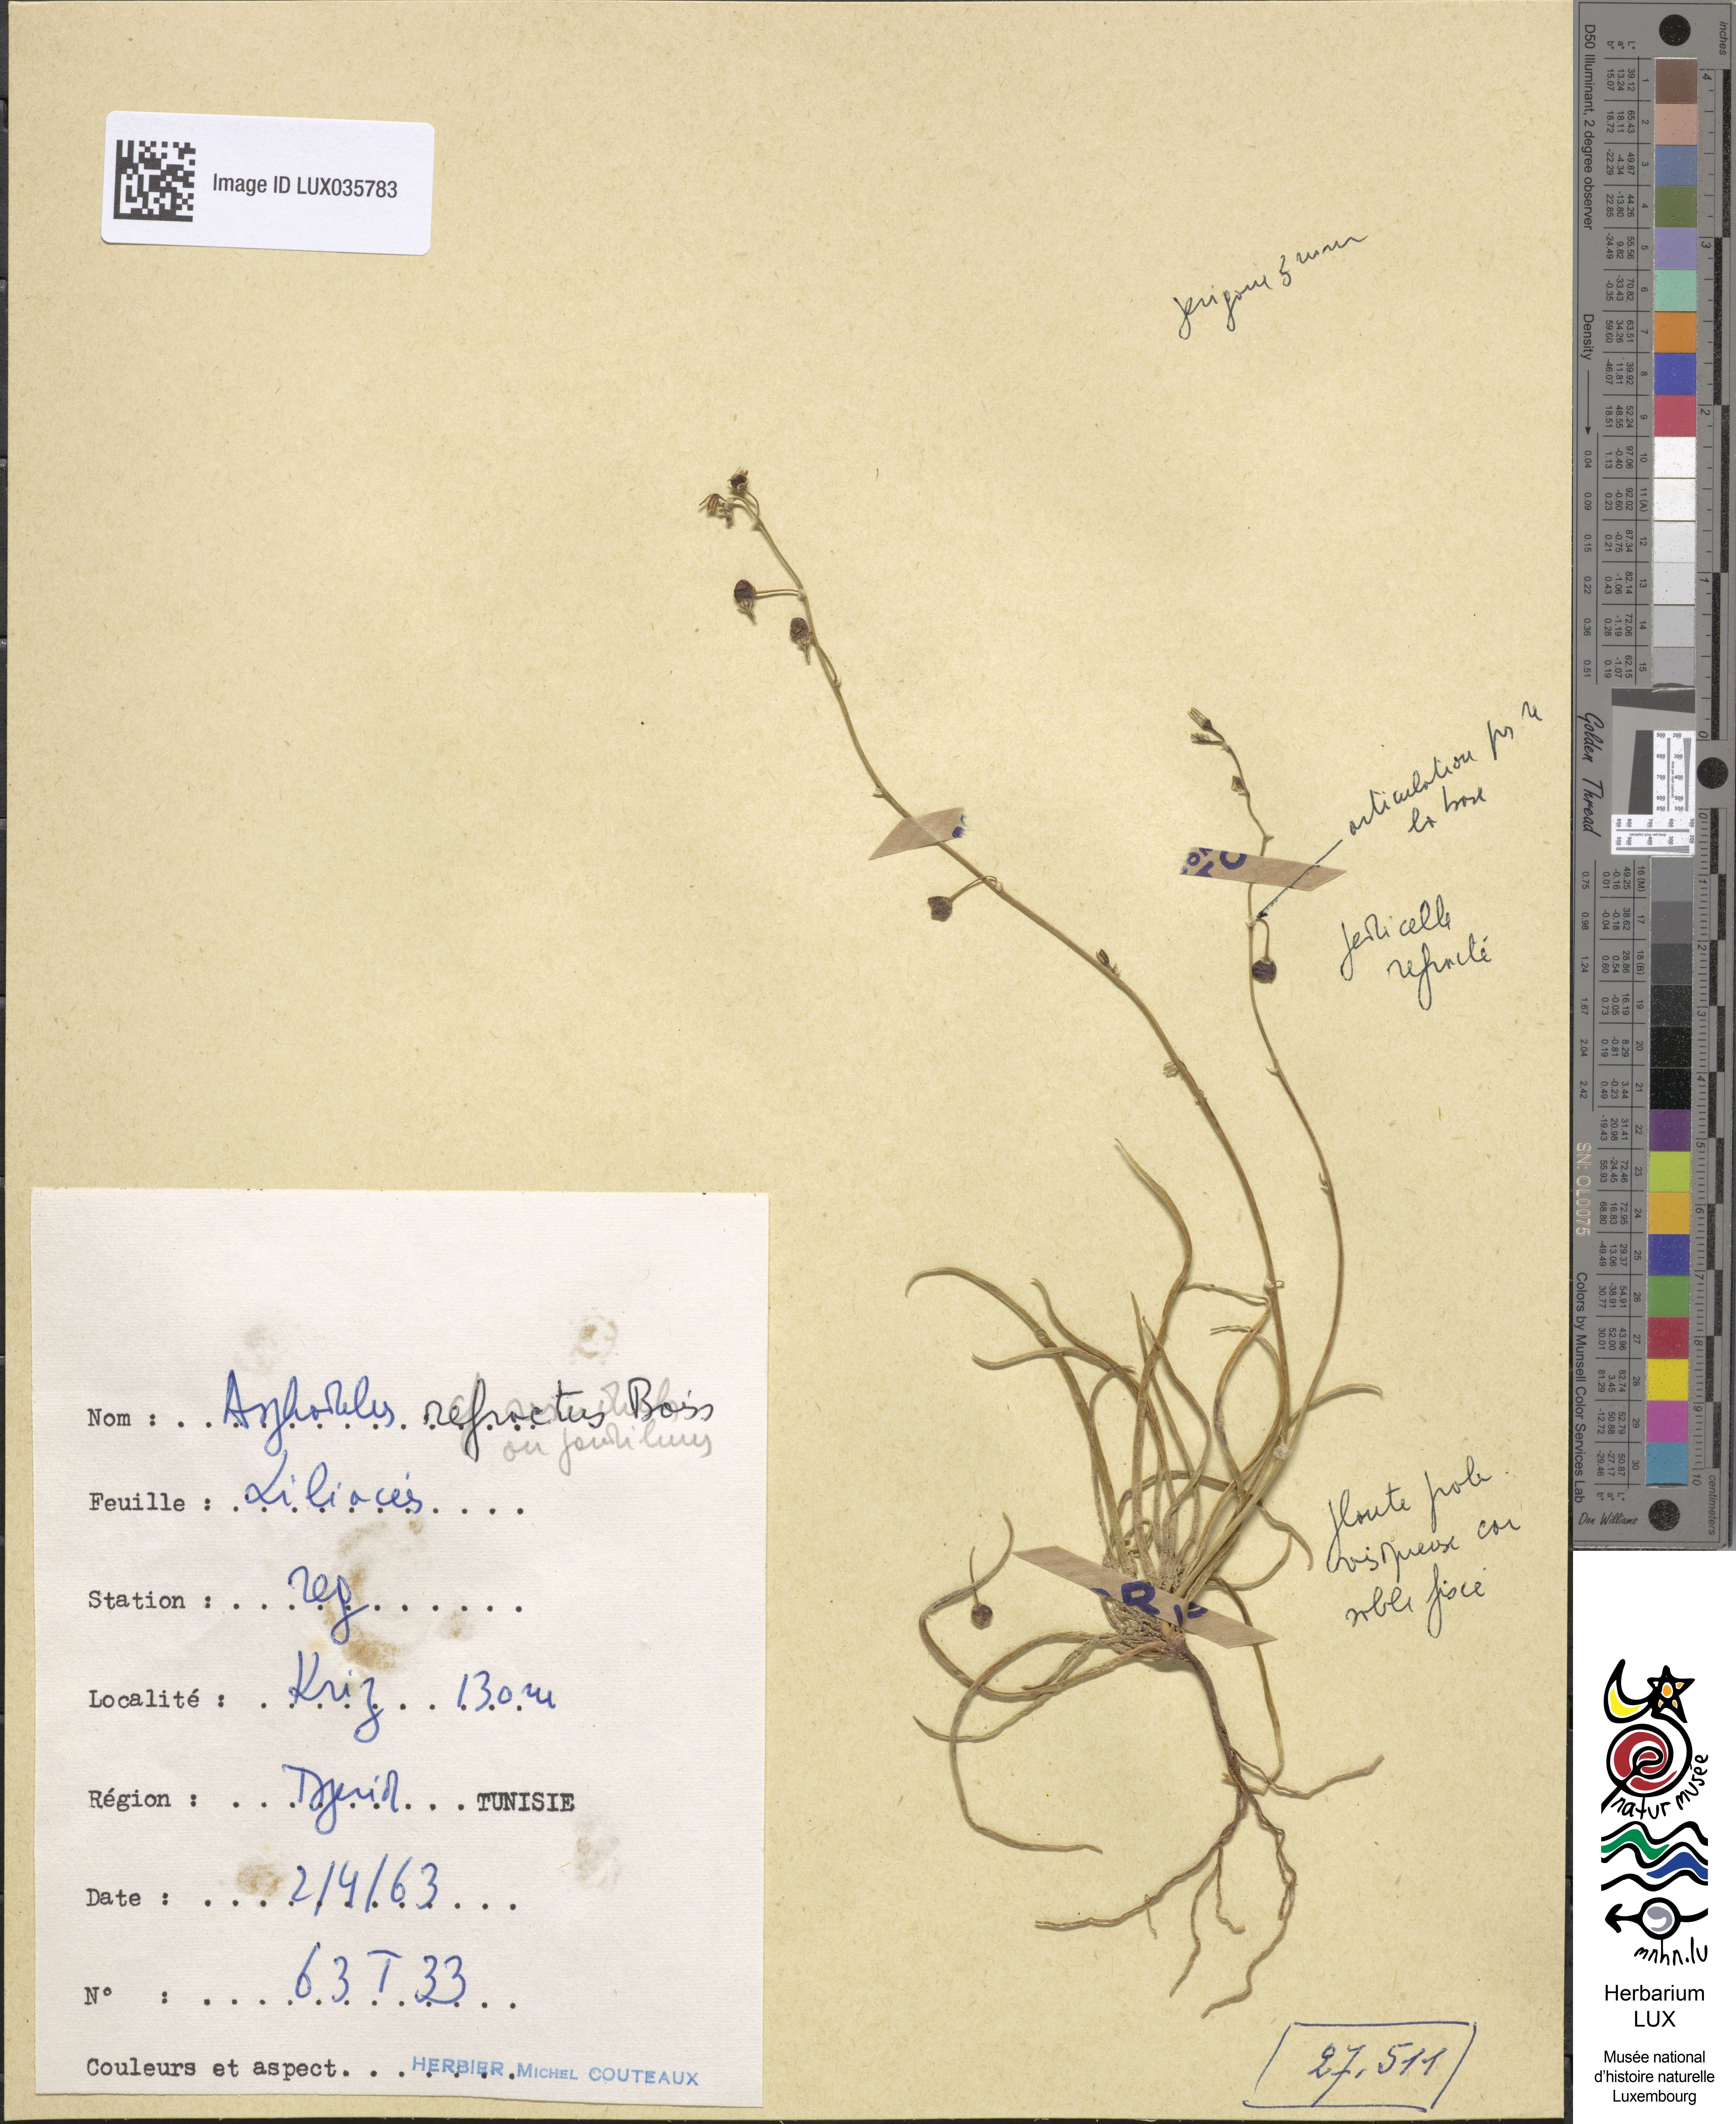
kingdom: Plantae
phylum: Tracheophyta
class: Liliopsida
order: Asparagales
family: Asphodelaceae
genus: Asphodelus
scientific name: Asphodelus refractus
